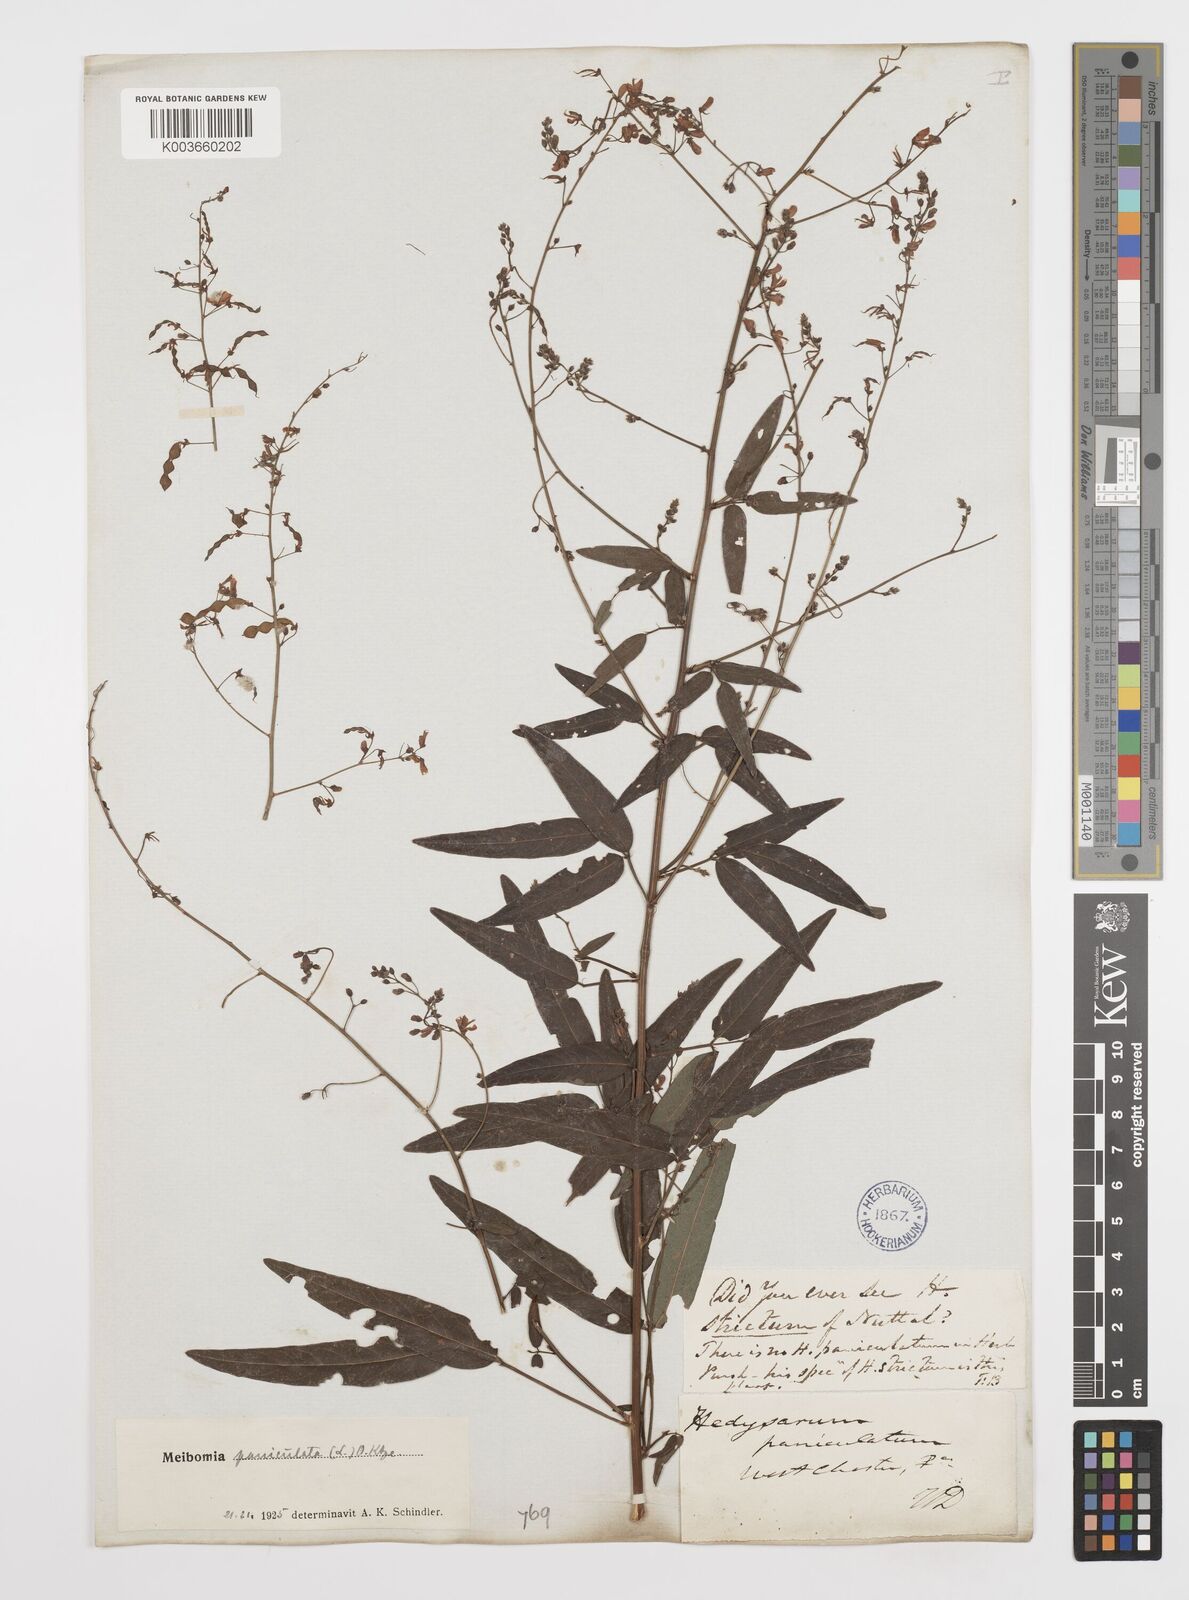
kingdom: Plantae
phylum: Tracheophyta
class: Magnoliopsida
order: Fabales
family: Fabaceae
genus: Desmodium
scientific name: Desmodium paniculatum
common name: Panicled tick-clover
